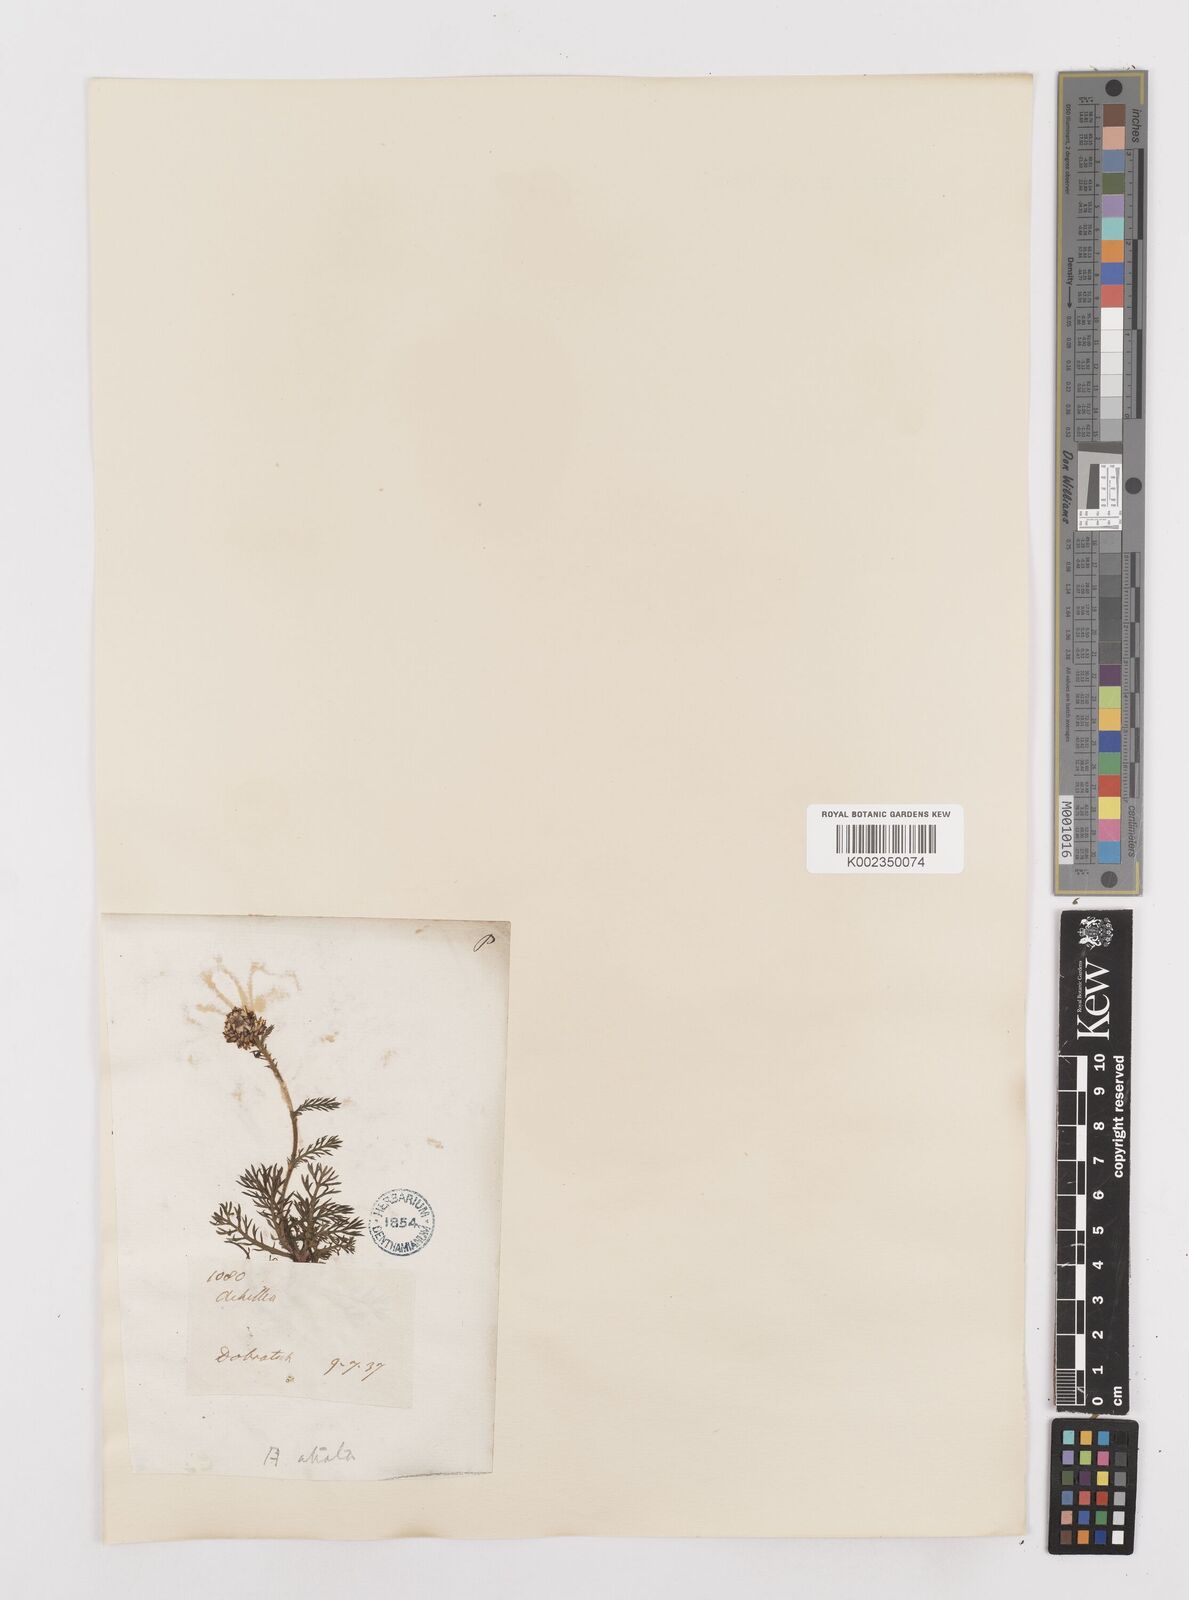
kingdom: Plantae
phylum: Tracheophyta
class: Magnoliopsida
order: Asterales
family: Asteraceae
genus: Achillea
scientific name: Achillea atrata
